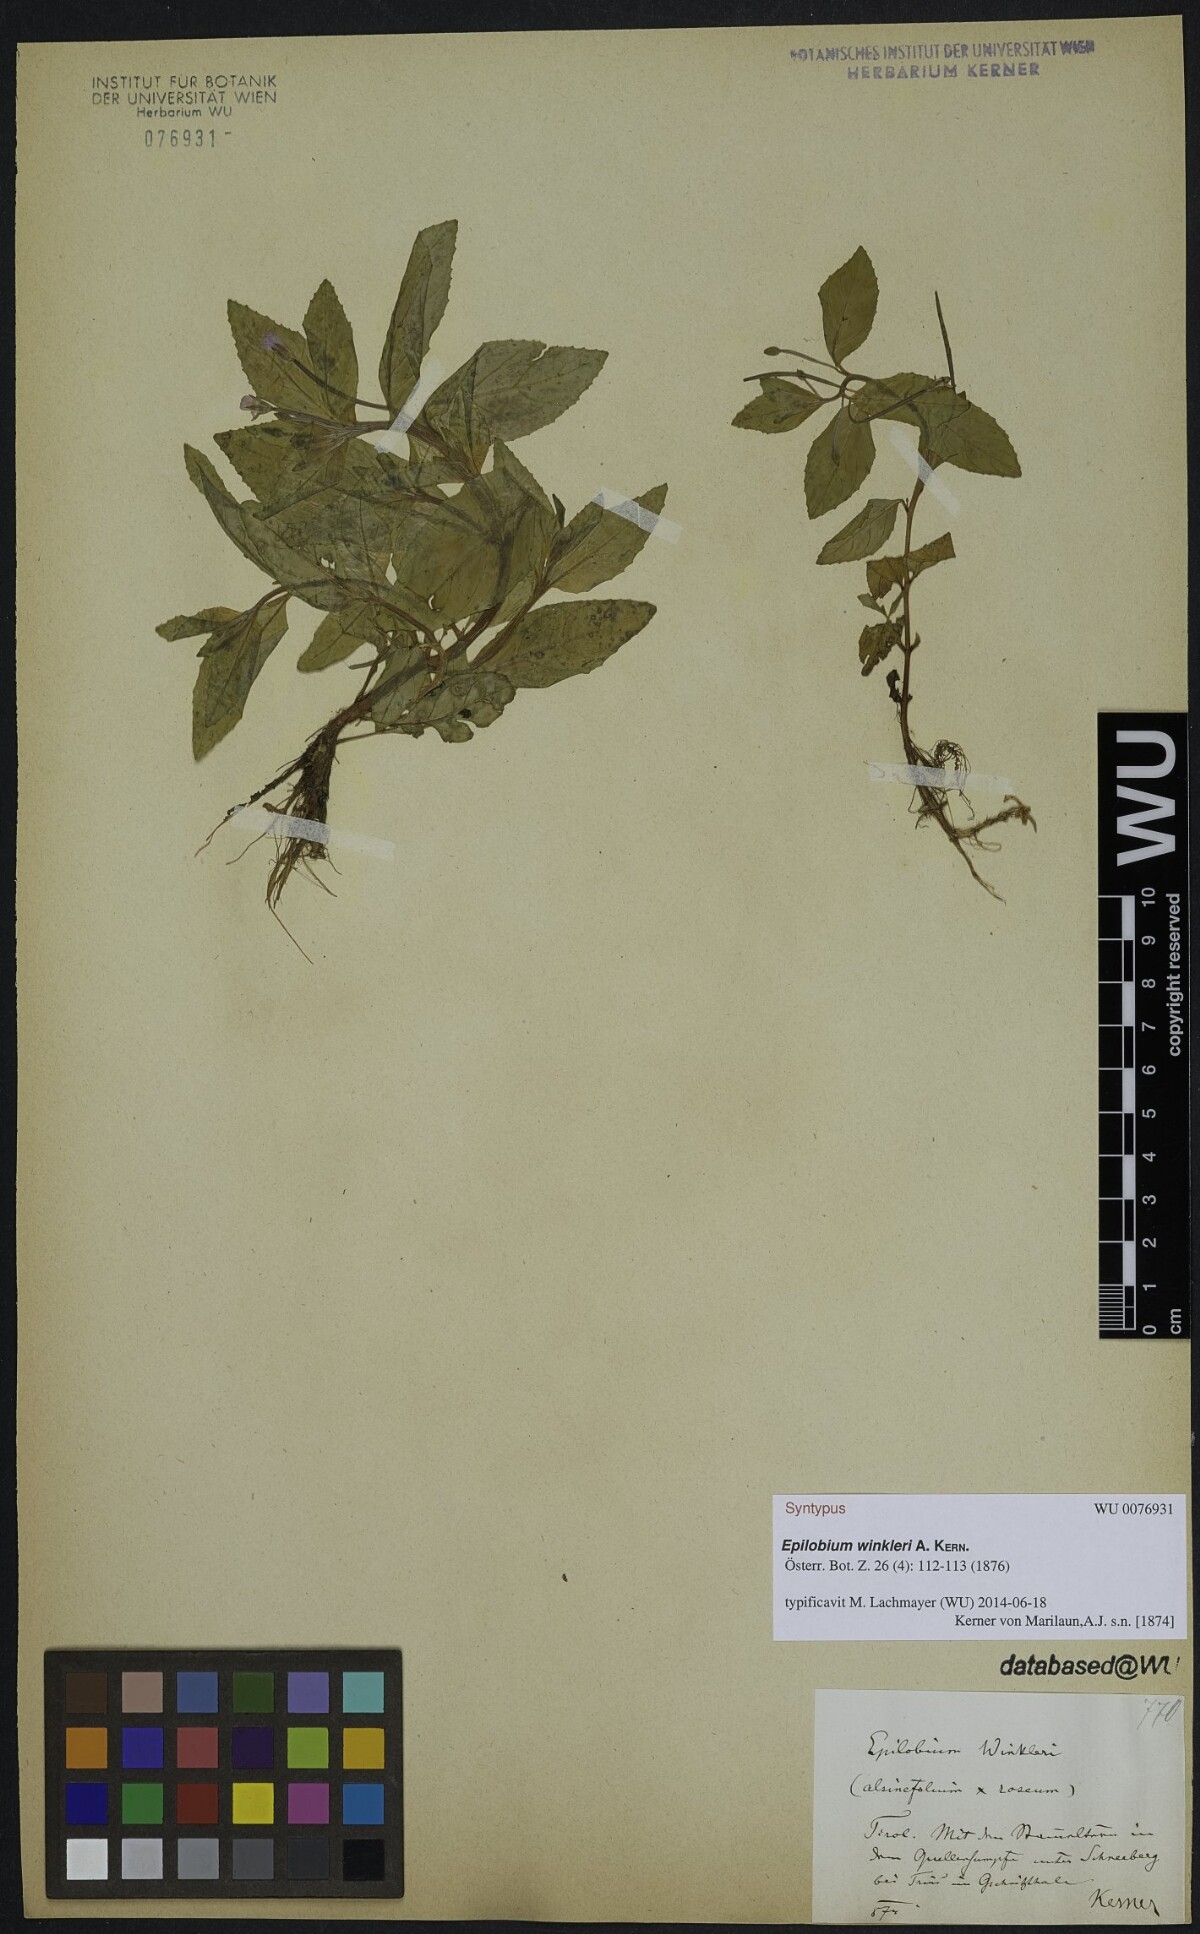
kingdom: Plantae
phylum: Tracheophyta
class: Magnoliopsida
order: Myrtales
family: Onagraceae
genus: Epilobium
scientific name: Epilobium winkleri
